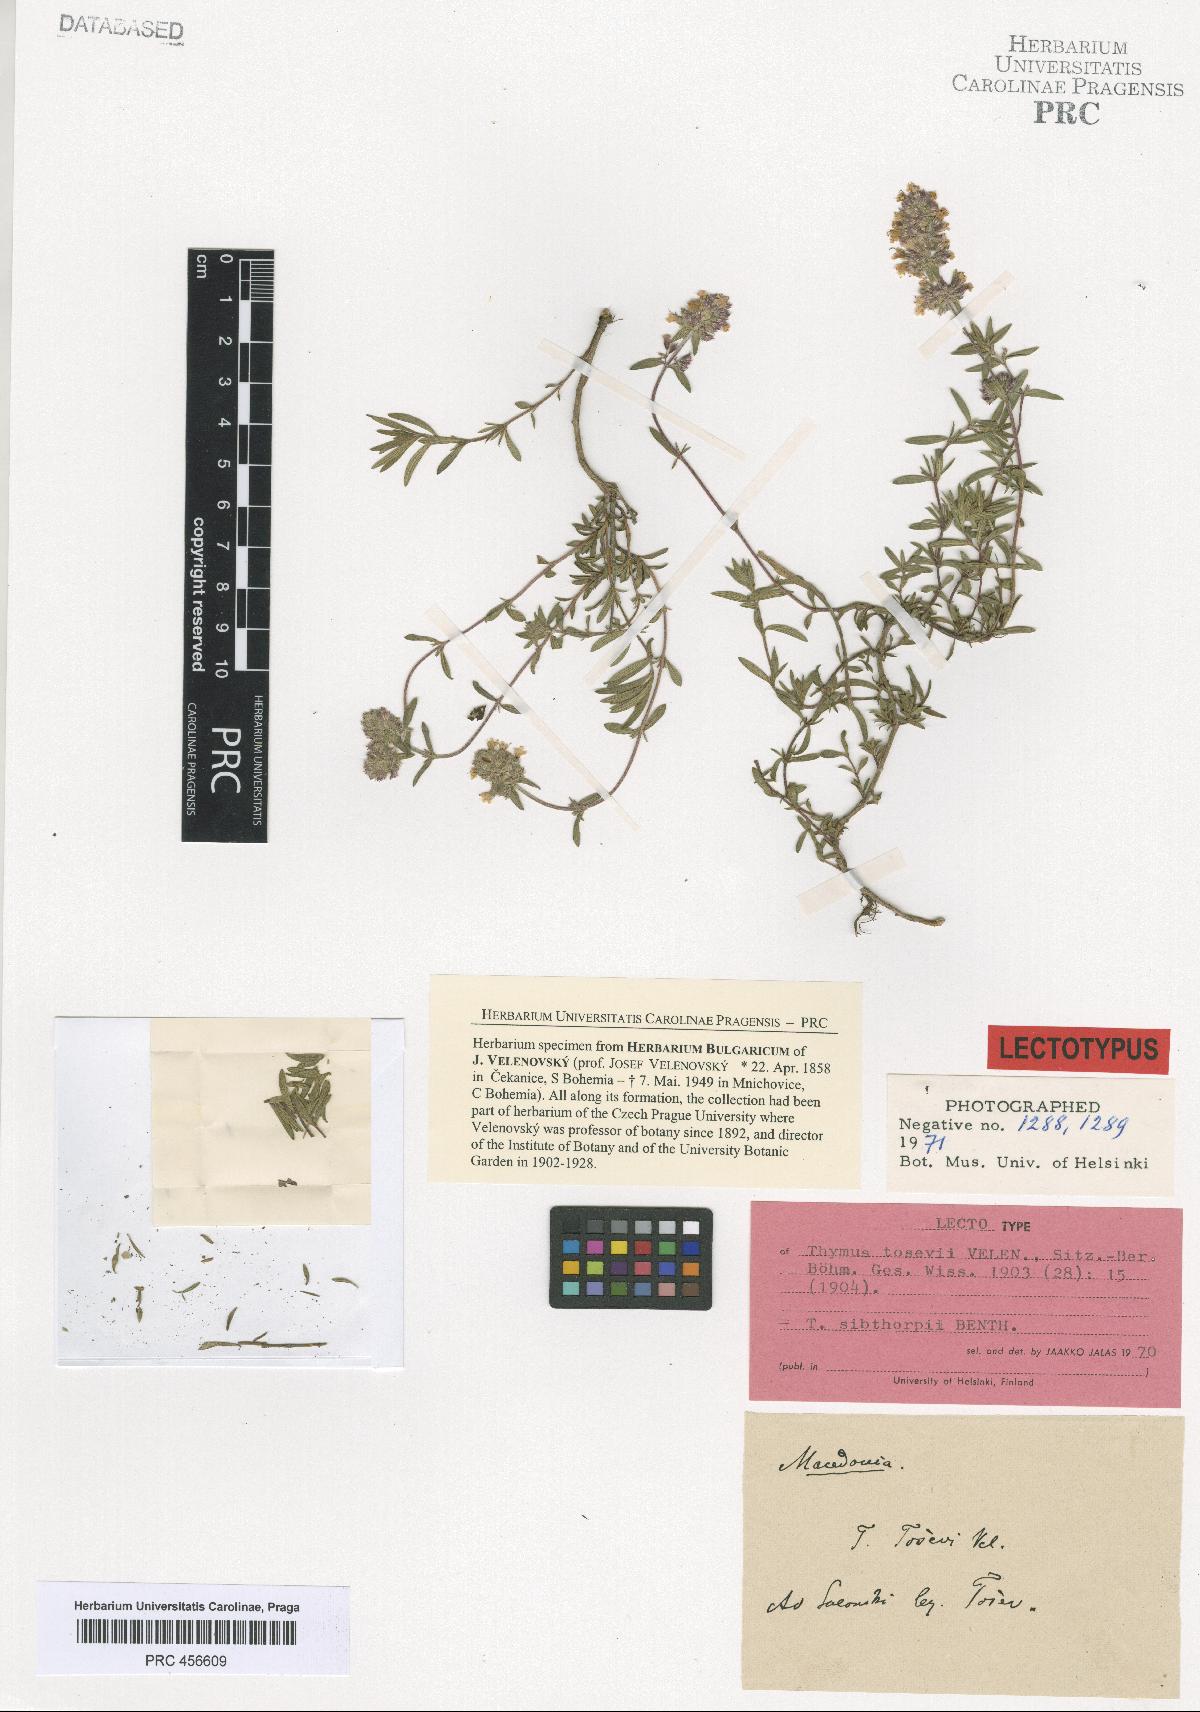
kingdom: Plantae
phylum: Tracheophyta
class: Magnoliopsida
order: Lamiales
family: Lamiaceae
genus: Thymus
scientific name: Thymus sibthorpii
